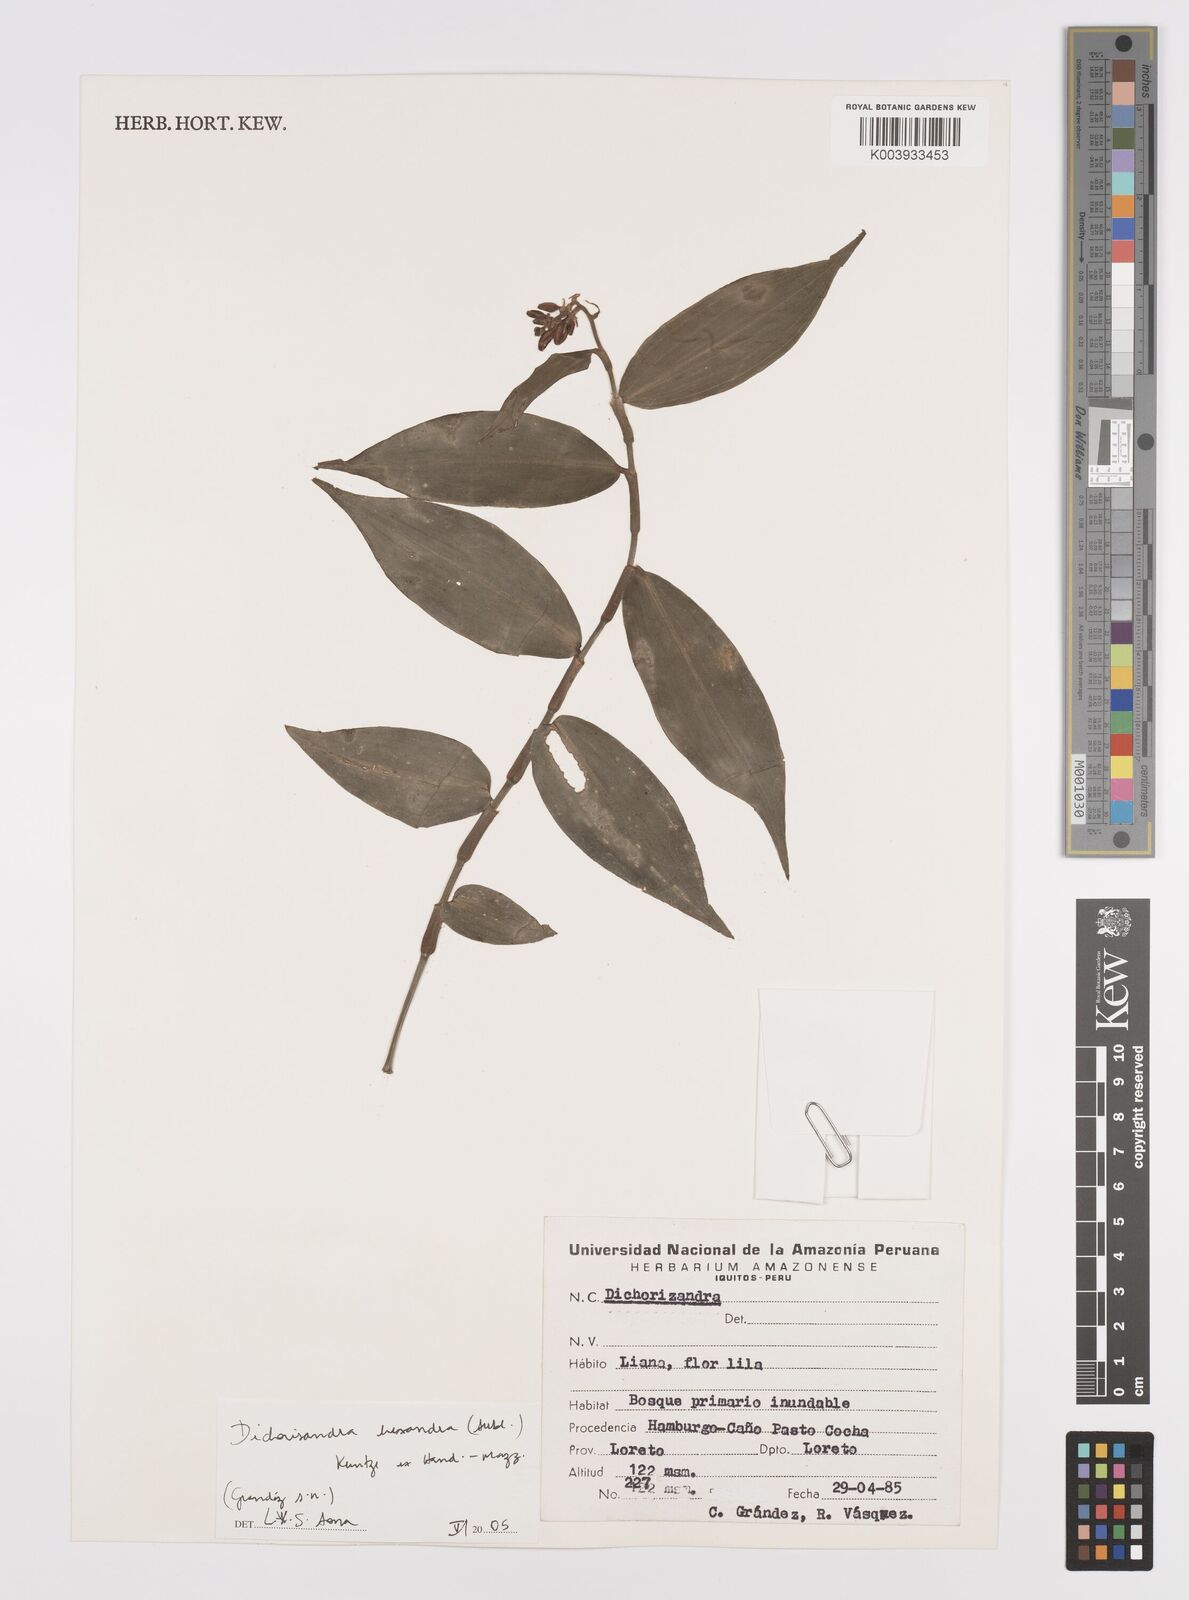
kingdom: Plantae
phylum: Tracheophyta
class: Liliopsida
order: Commelinales
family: Commelinaceae
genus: Dichorisandra
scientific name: Dichorisandra hexandra
